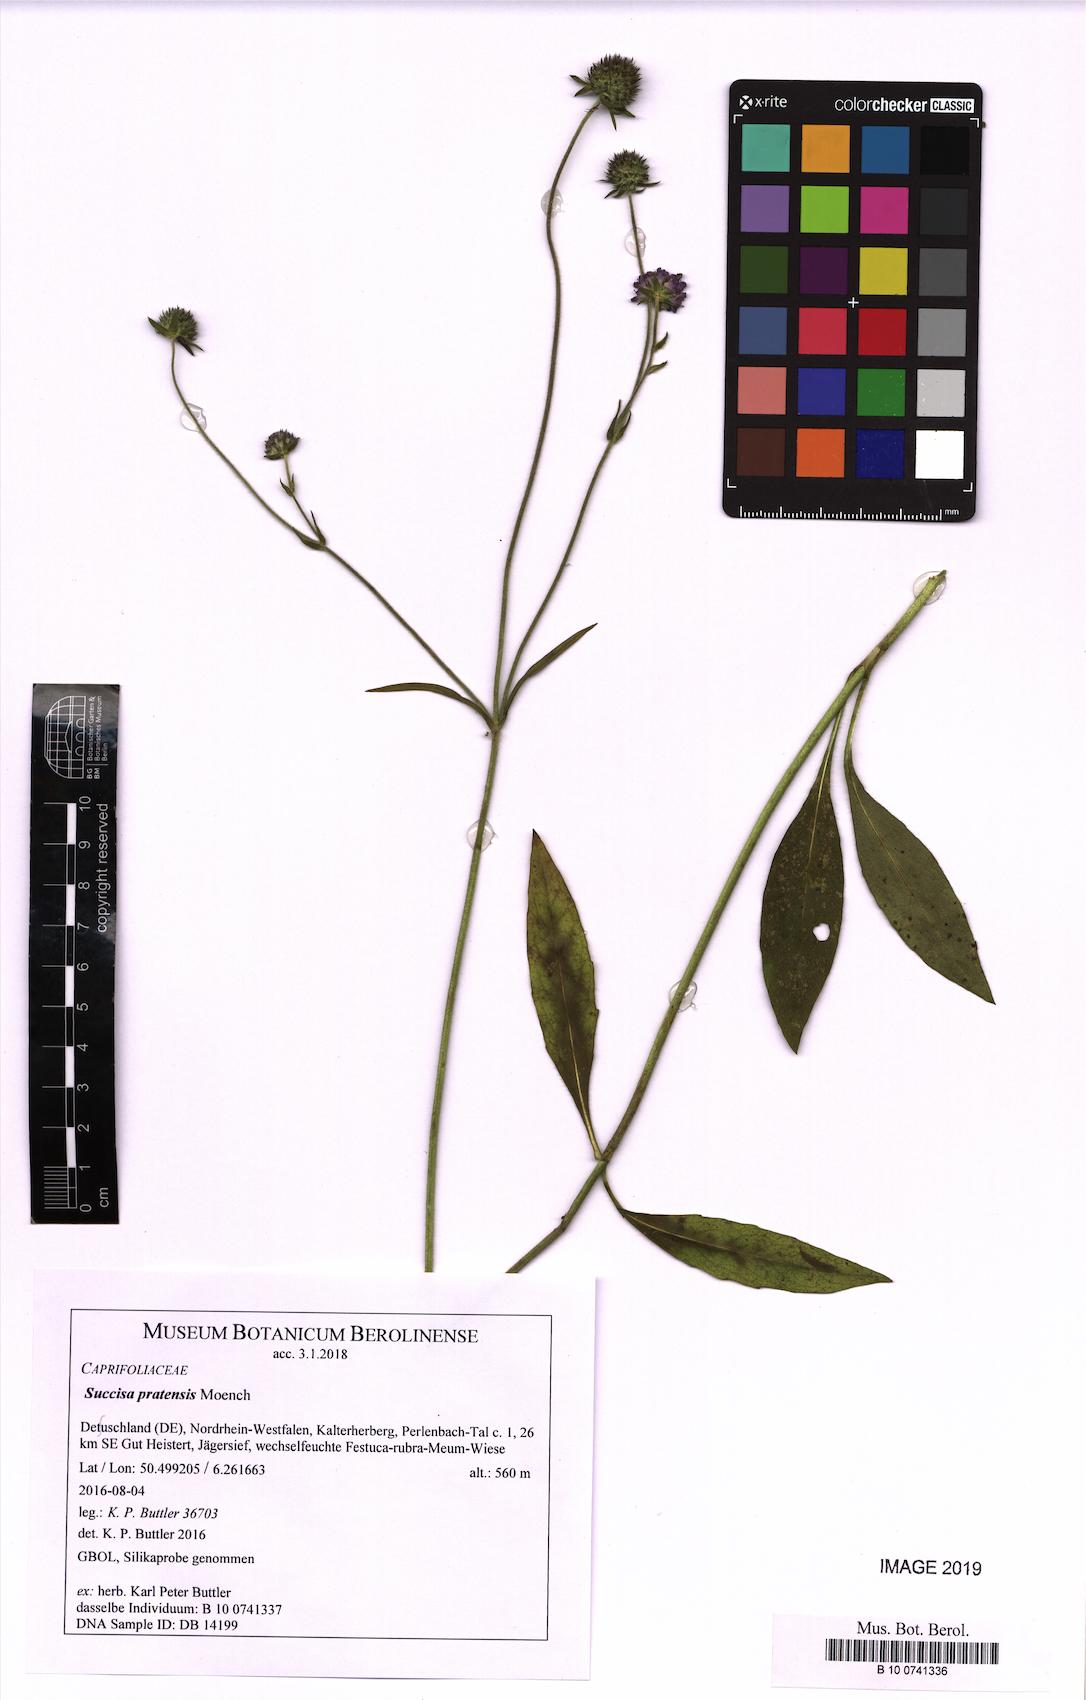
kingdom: Plantae
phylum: Tracheophyta
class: Magnoliopsida
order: Dipsacales
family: Caprifoliaceae
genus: Succisa
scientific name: Succisa pratensis
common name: Devil's-bit
